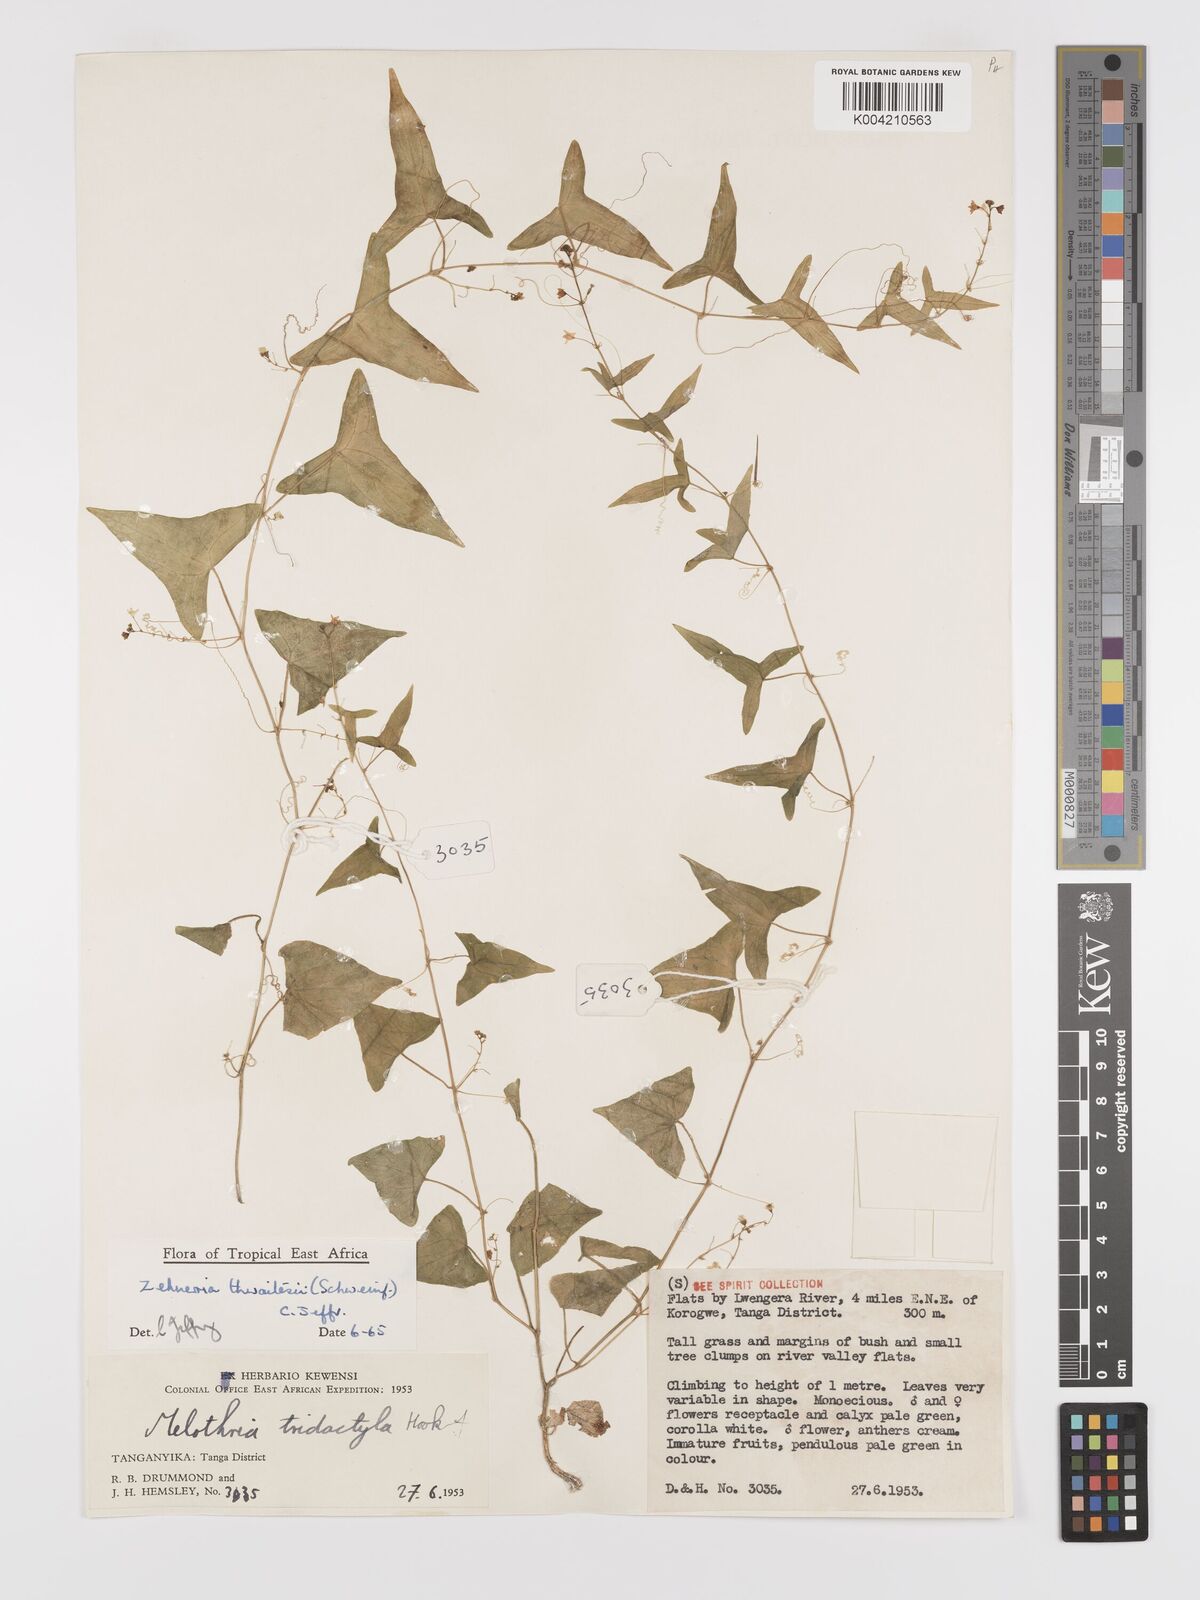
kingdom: Plantae
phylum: Tracheophyta
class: Magnoliopsida
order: Cucurbitales
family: Cucurbitaceae
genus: Zehneria
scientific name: Zehneria thwaitesii
